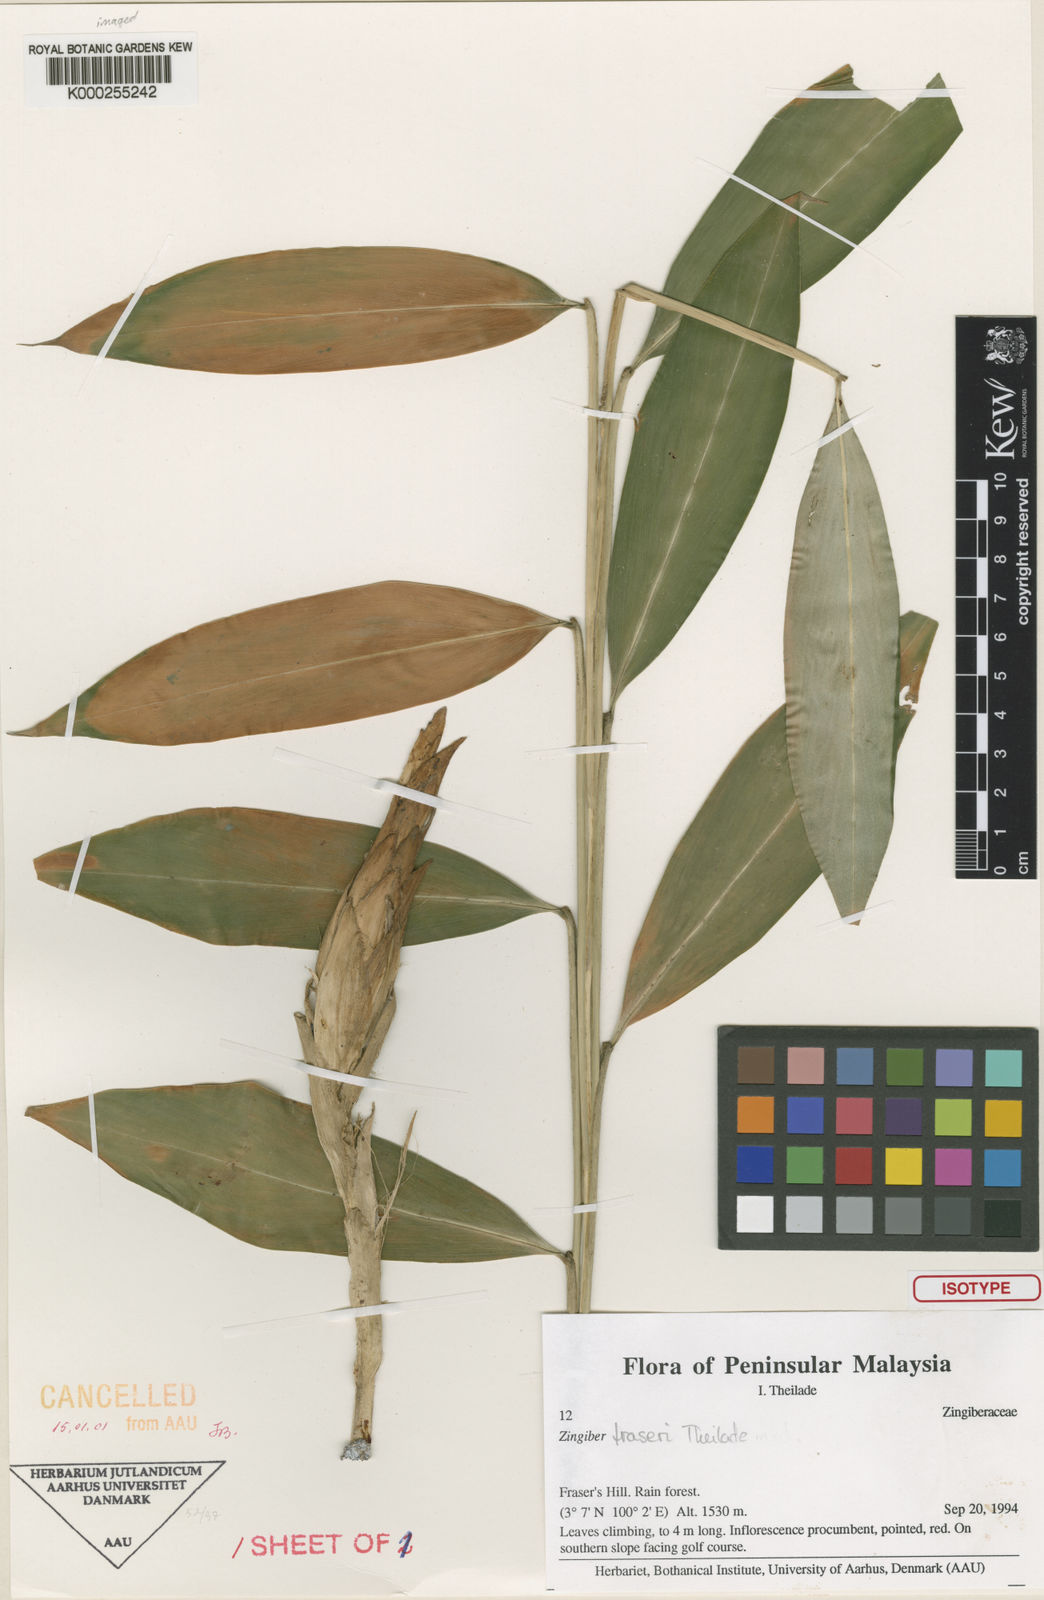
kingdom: Plantae
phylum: Tracheophyta
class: Liliopsida
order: Zingiberales
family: Zingiberaceae
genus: Zingiber
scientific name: Zingiber fraseri
